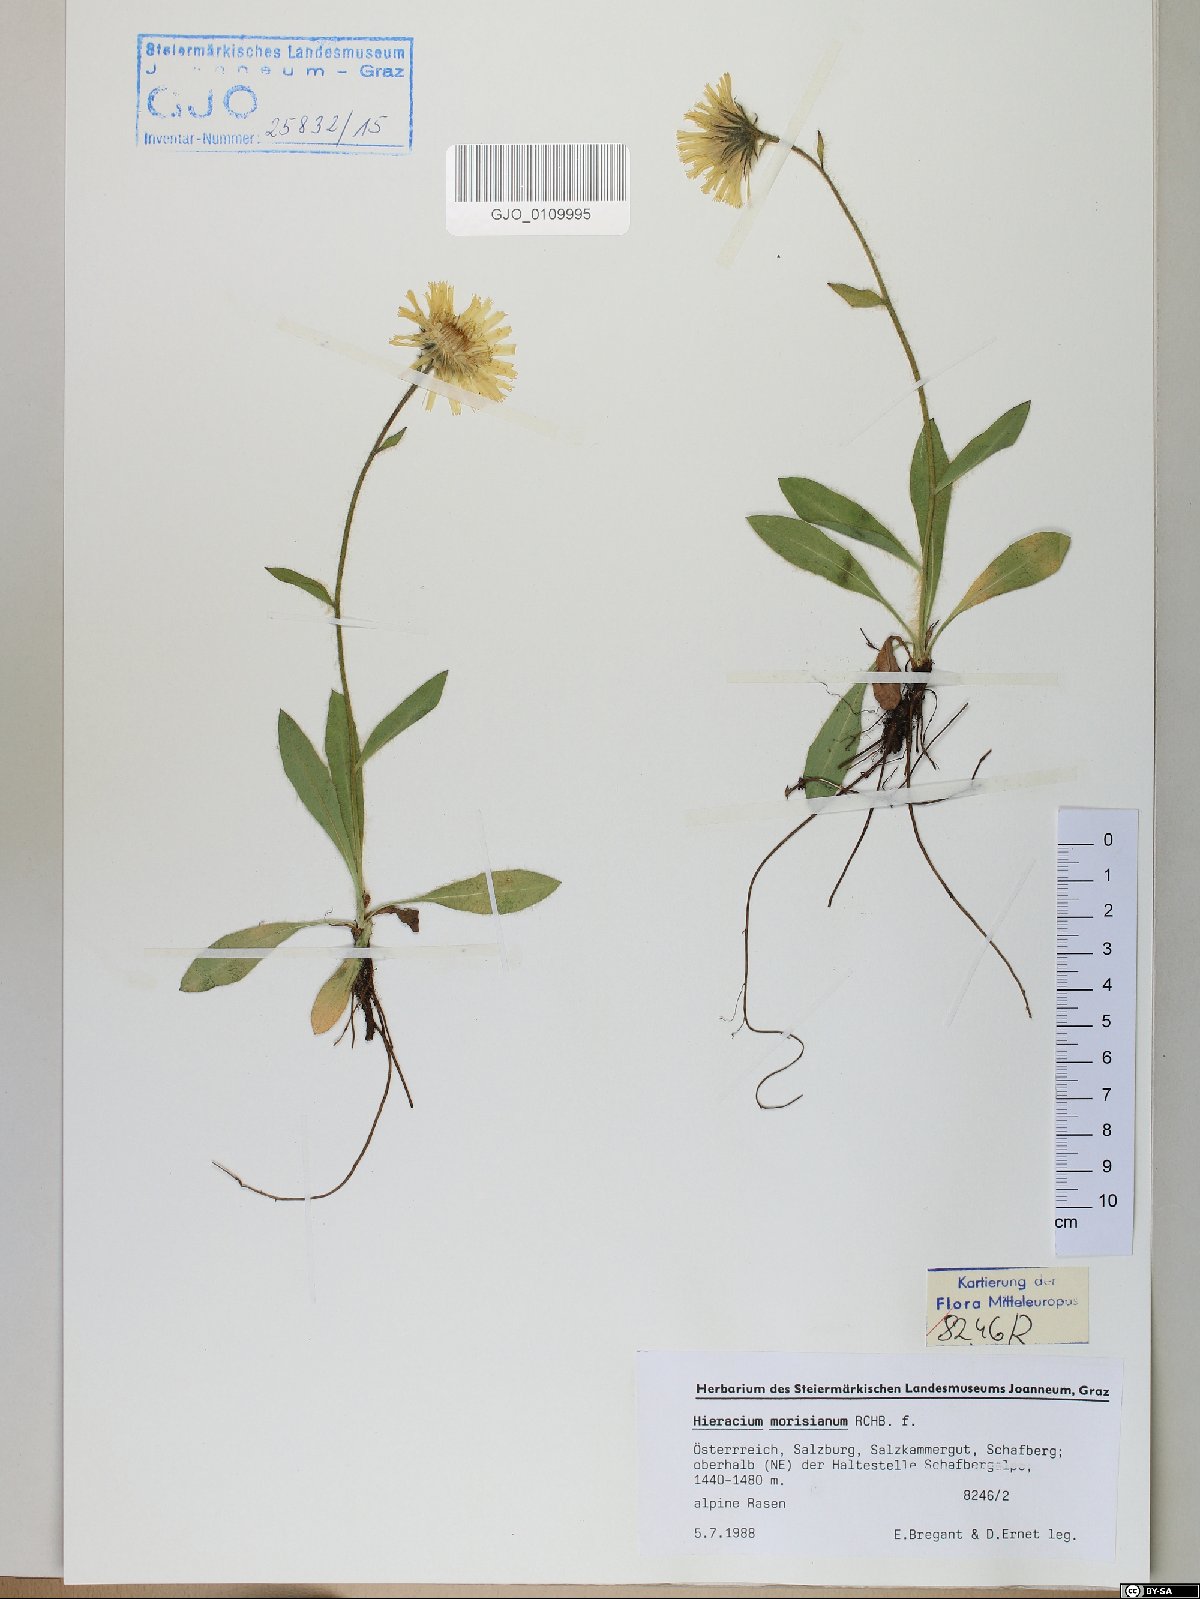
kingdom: Plantae
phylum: Tracheophyta
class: Magnoliopsida
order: Asterales
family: Asteraceae
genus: Hieracium
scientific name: Hieracium pilosum
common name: Fimbriate-pitted hawkweed
